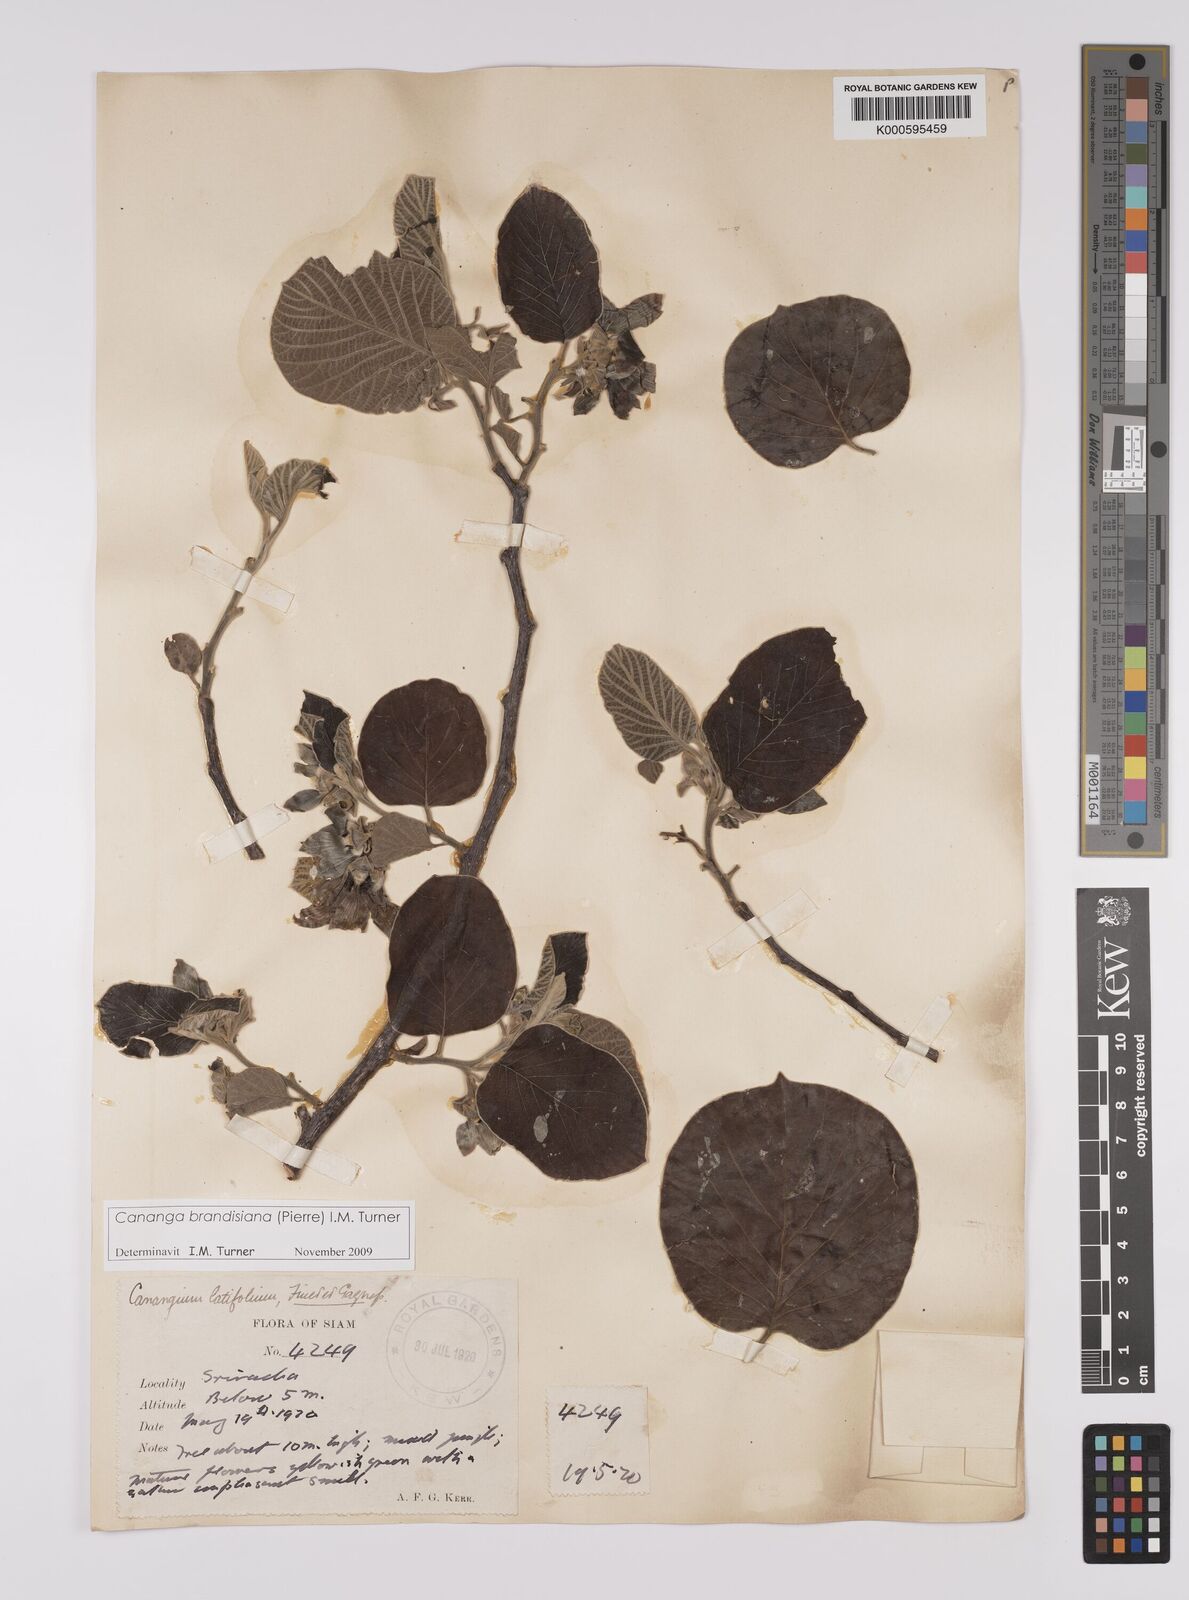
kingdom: Plantae
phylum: Tracheophyta
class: Magnoliopsida
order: Magnoliales
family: Annonaceae
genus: Cananga
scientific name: Cananga brandisiana
